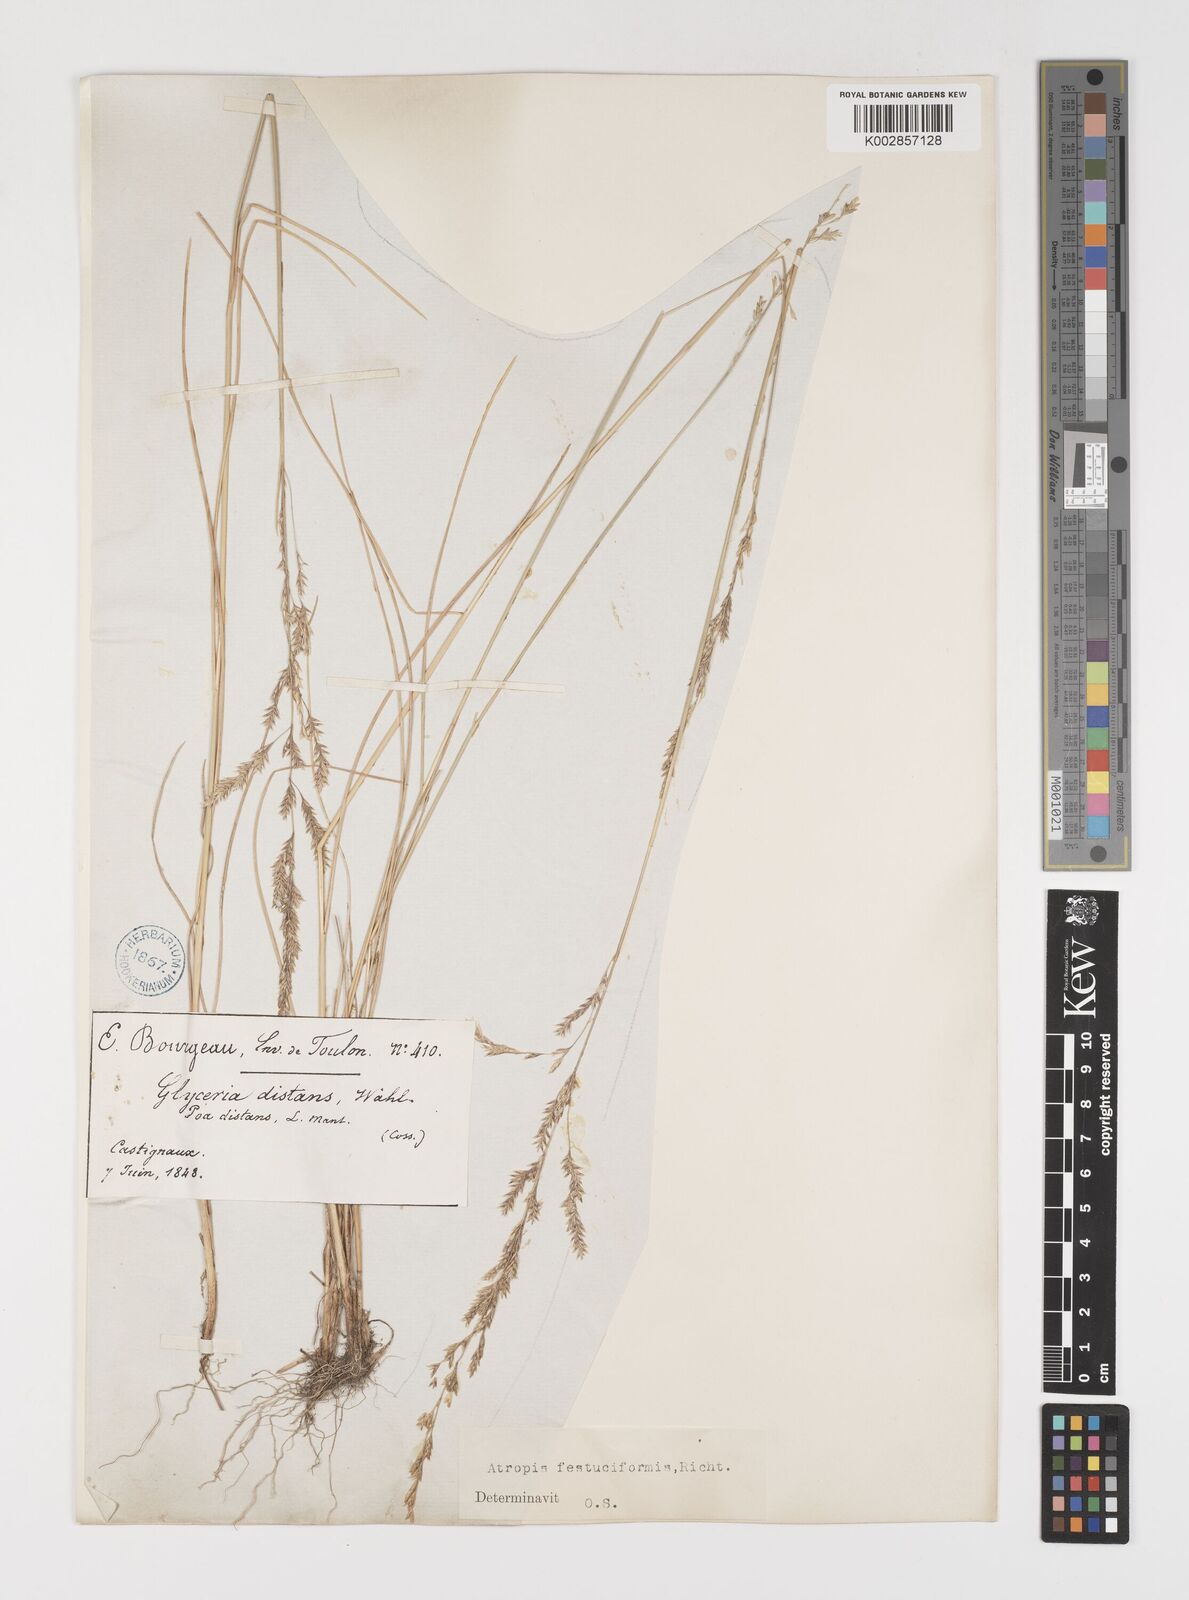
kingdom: Plantae
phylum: Tracheophyta
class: Liliopsida
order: Poales
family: Poaceae
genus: Puccinellia
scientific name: Puccinellia festuciformis
